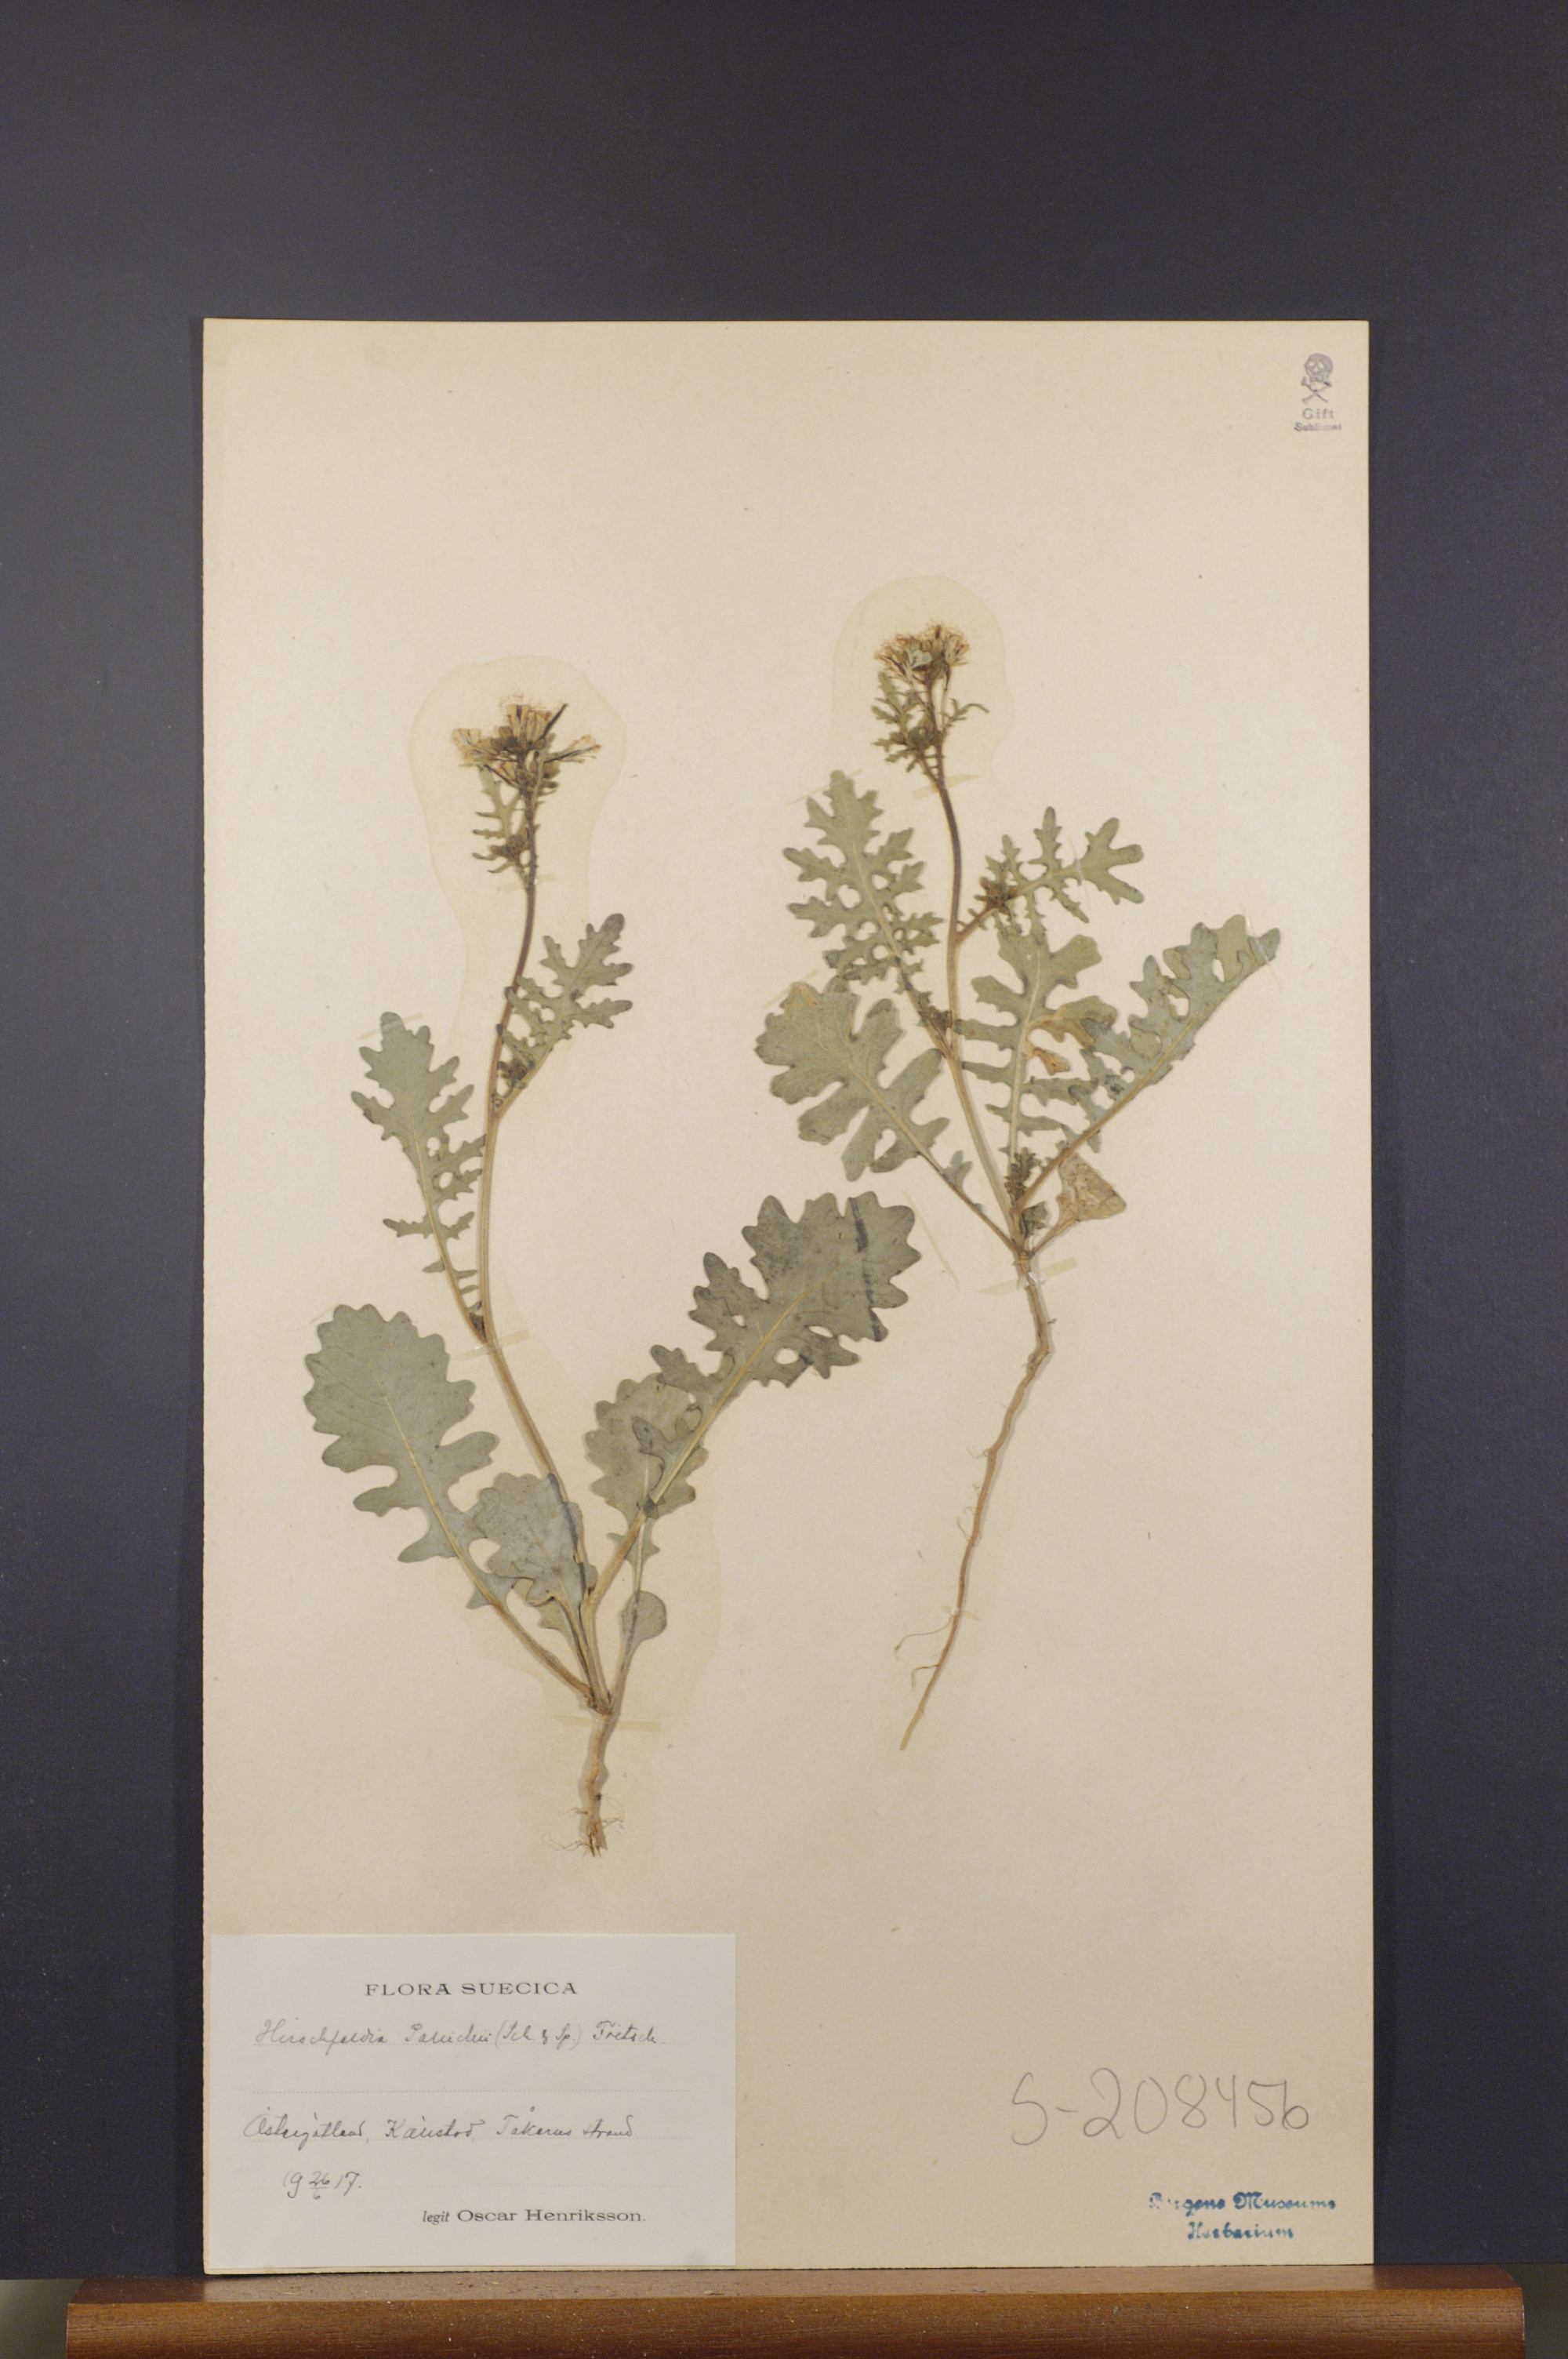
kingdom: Plantae
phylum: Tracheophyta
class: Magnoliopsida
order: Brassicales
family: Brassicaceae
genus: Erucastrum
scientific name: Erucastrum gallicum
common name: Hairy rocket
